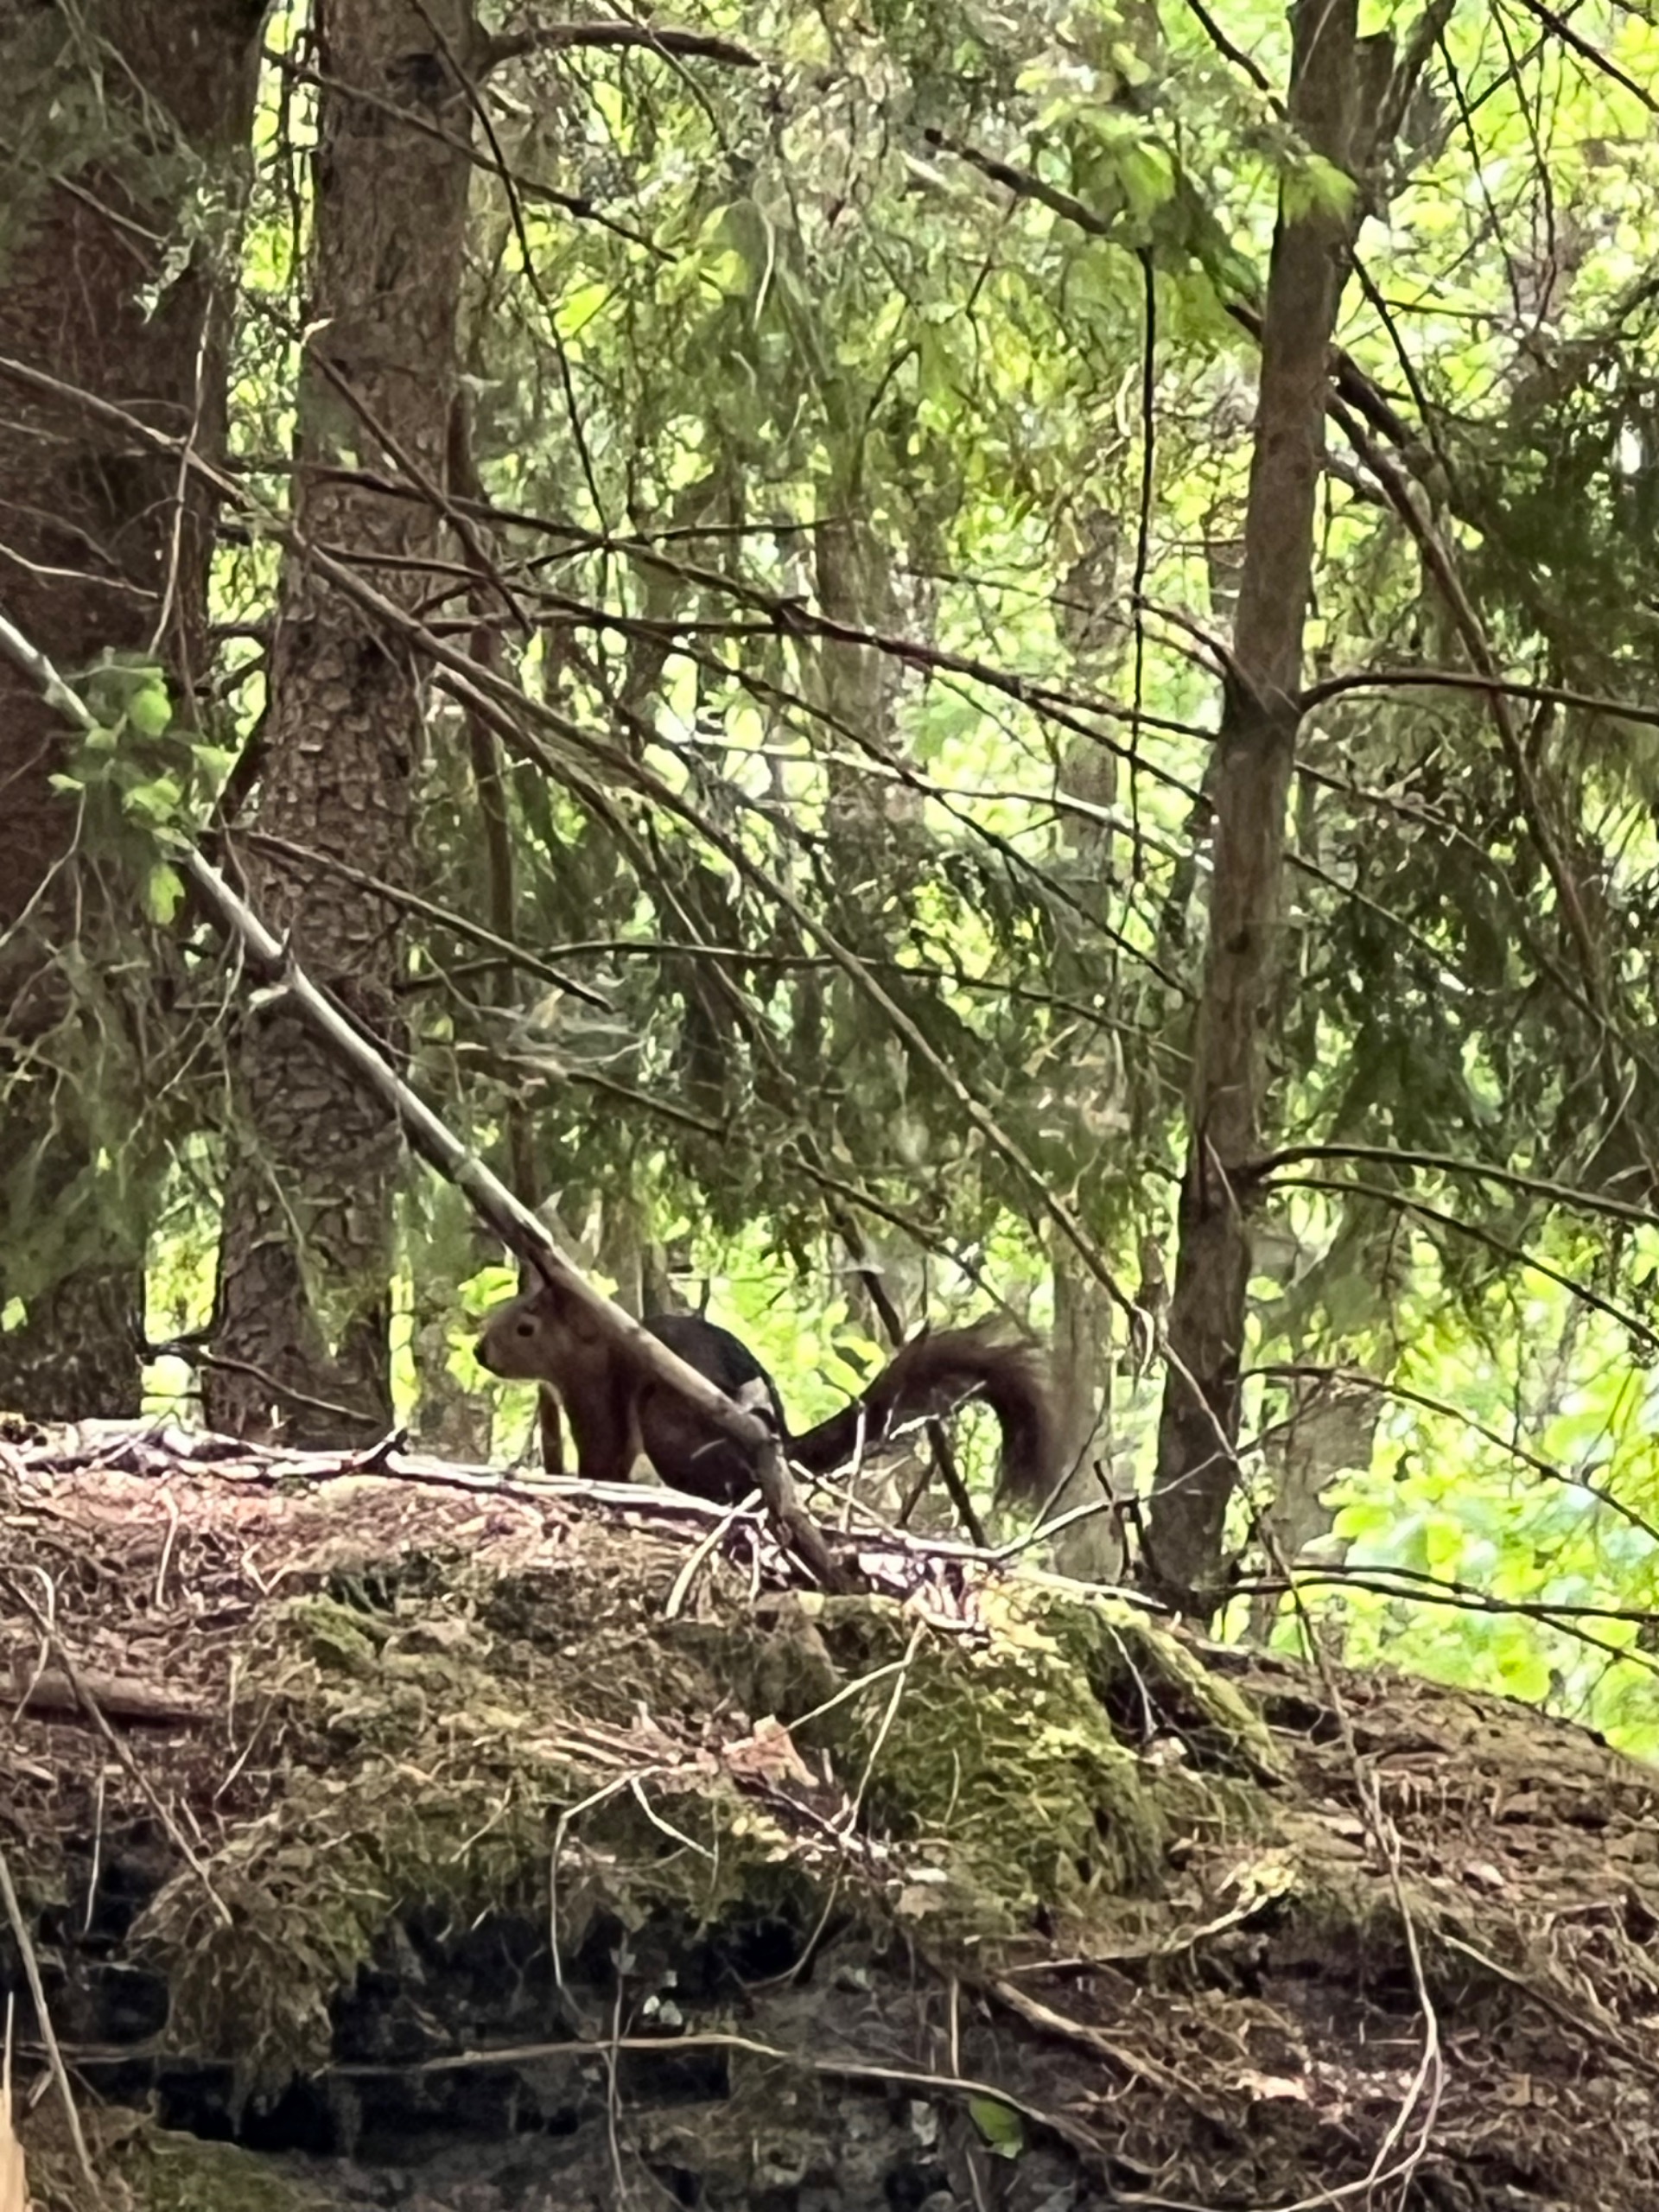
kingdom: Animalia
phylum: Chordata
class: Mammalia
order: Rodentia
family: Sciuridae
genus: Sciurus
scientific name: Sciurus vulgaris
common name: Egern
